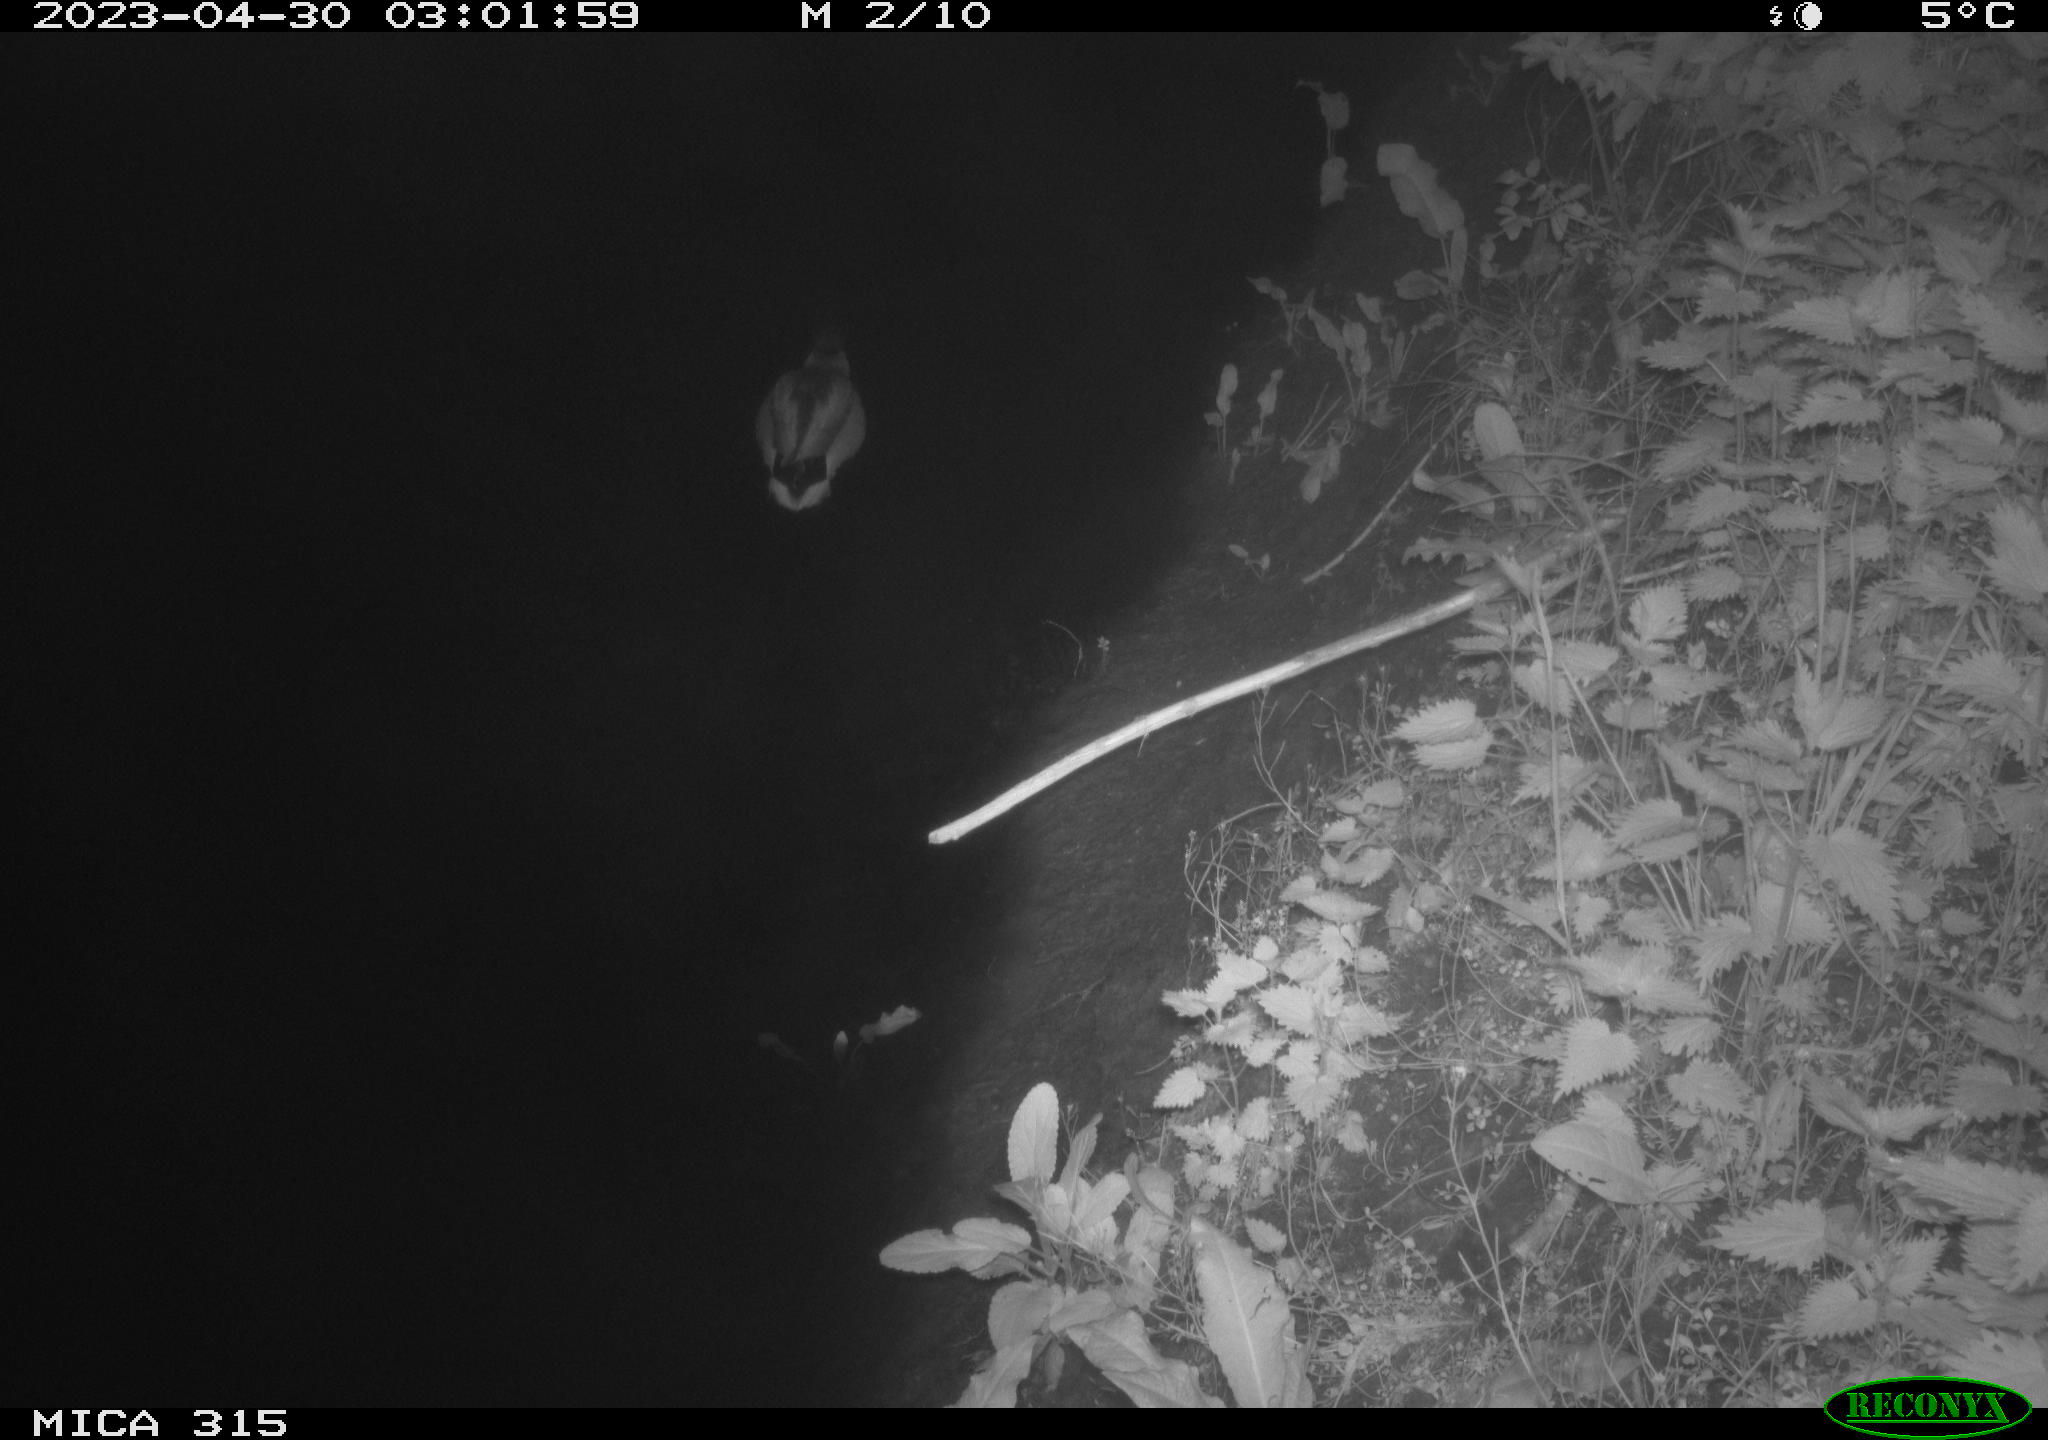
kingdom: Animalia
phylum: Chordata
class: Aves
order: Anseriformes
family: Anatidae
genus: Anas
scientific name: Anas
